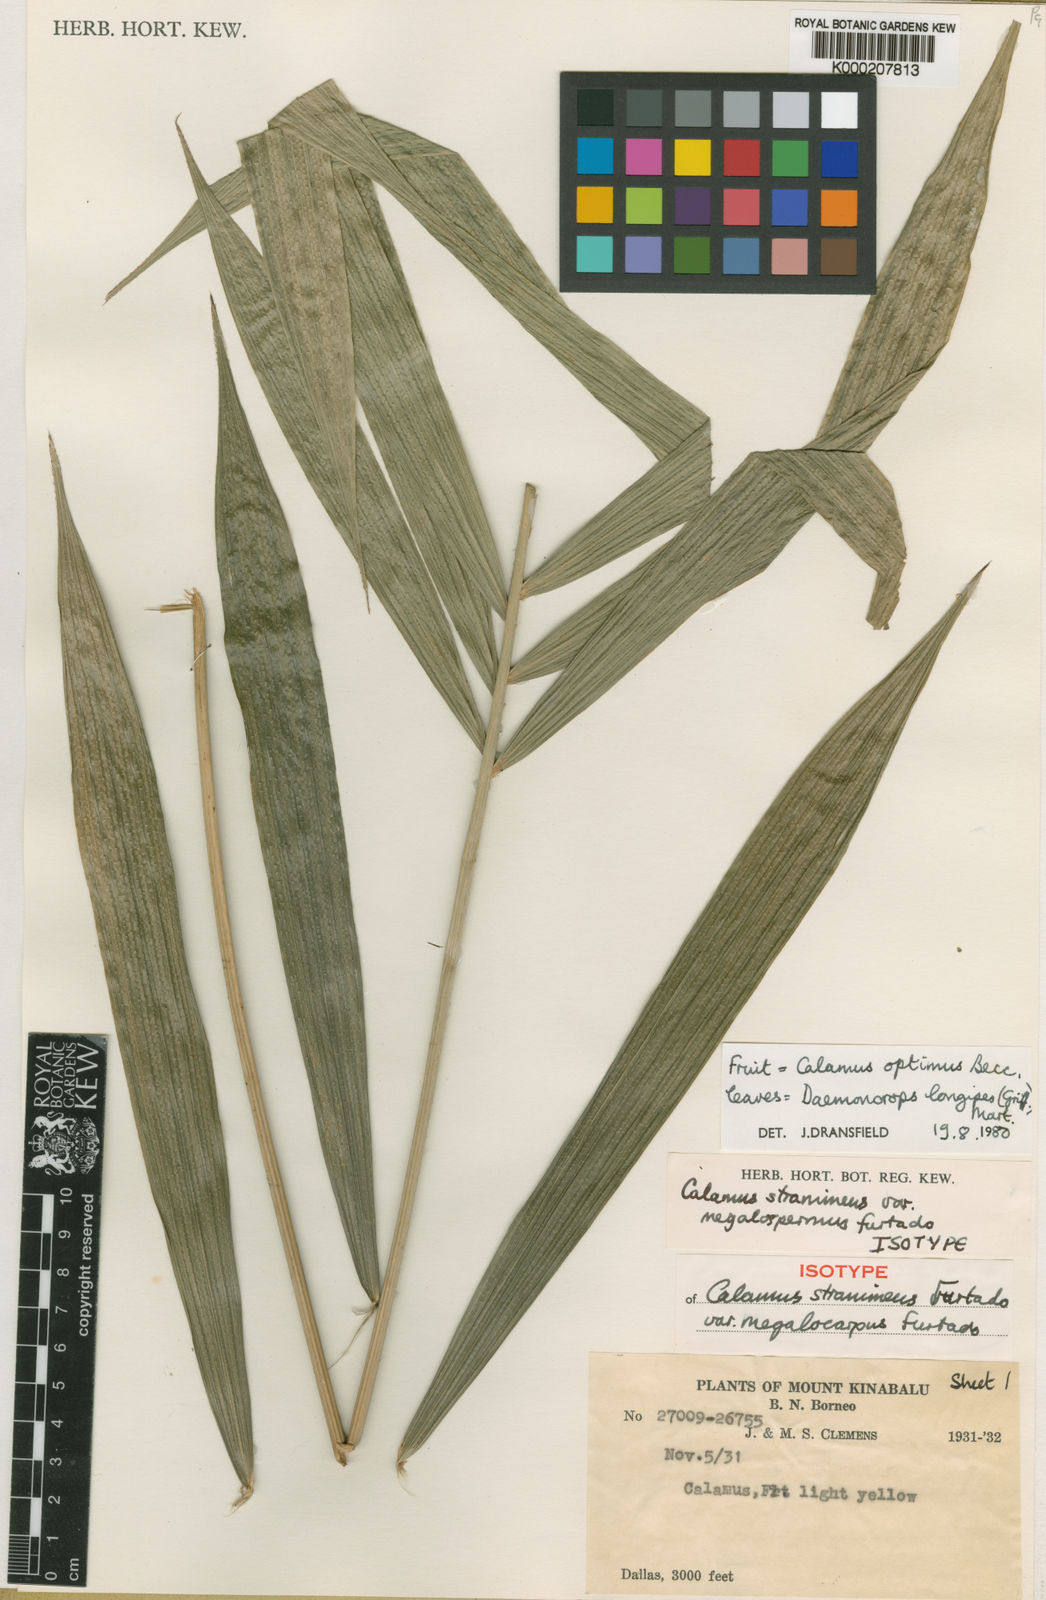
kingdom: Plantae
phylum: Tracheophyta
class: Liliopsida
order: Arecales
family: Arecaceae
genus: Calamus
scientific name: Calamus
